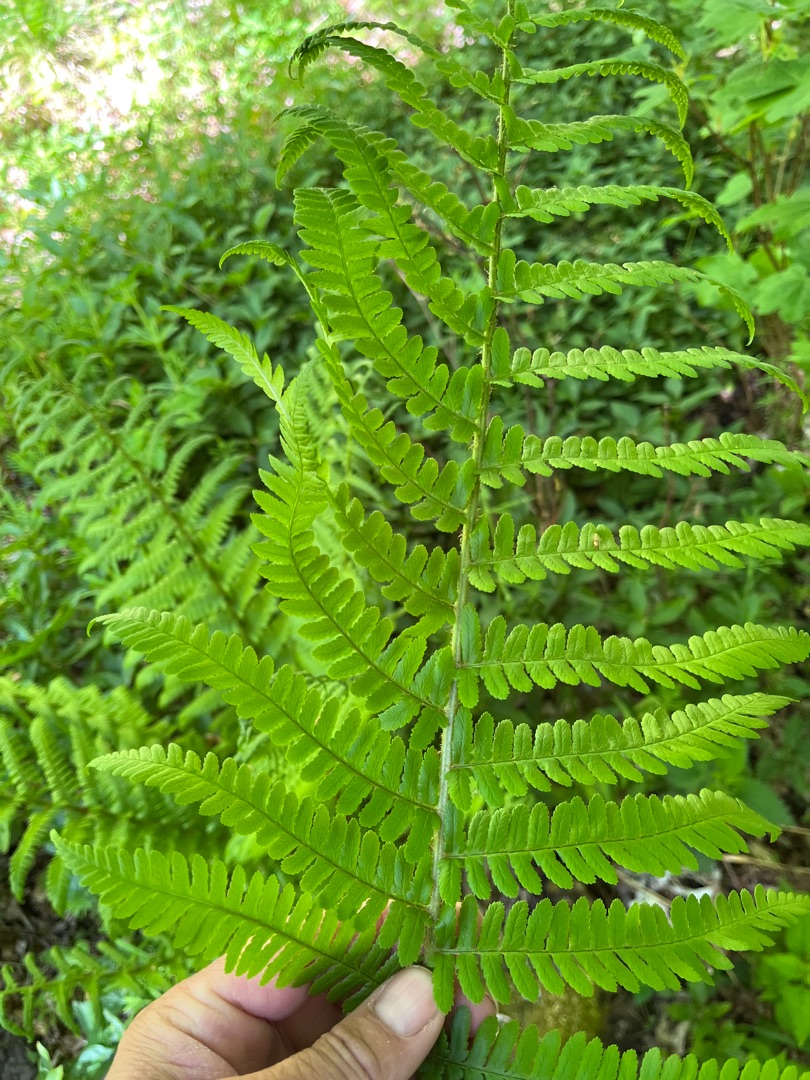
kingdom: Plantae
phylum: Tracheophyta
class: Polypodiopsida
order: Polypodiales
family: Dryopteridaceae
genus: Dryopteris
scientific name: Dryopteris filix-mas
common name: Almindelig mangeløv
